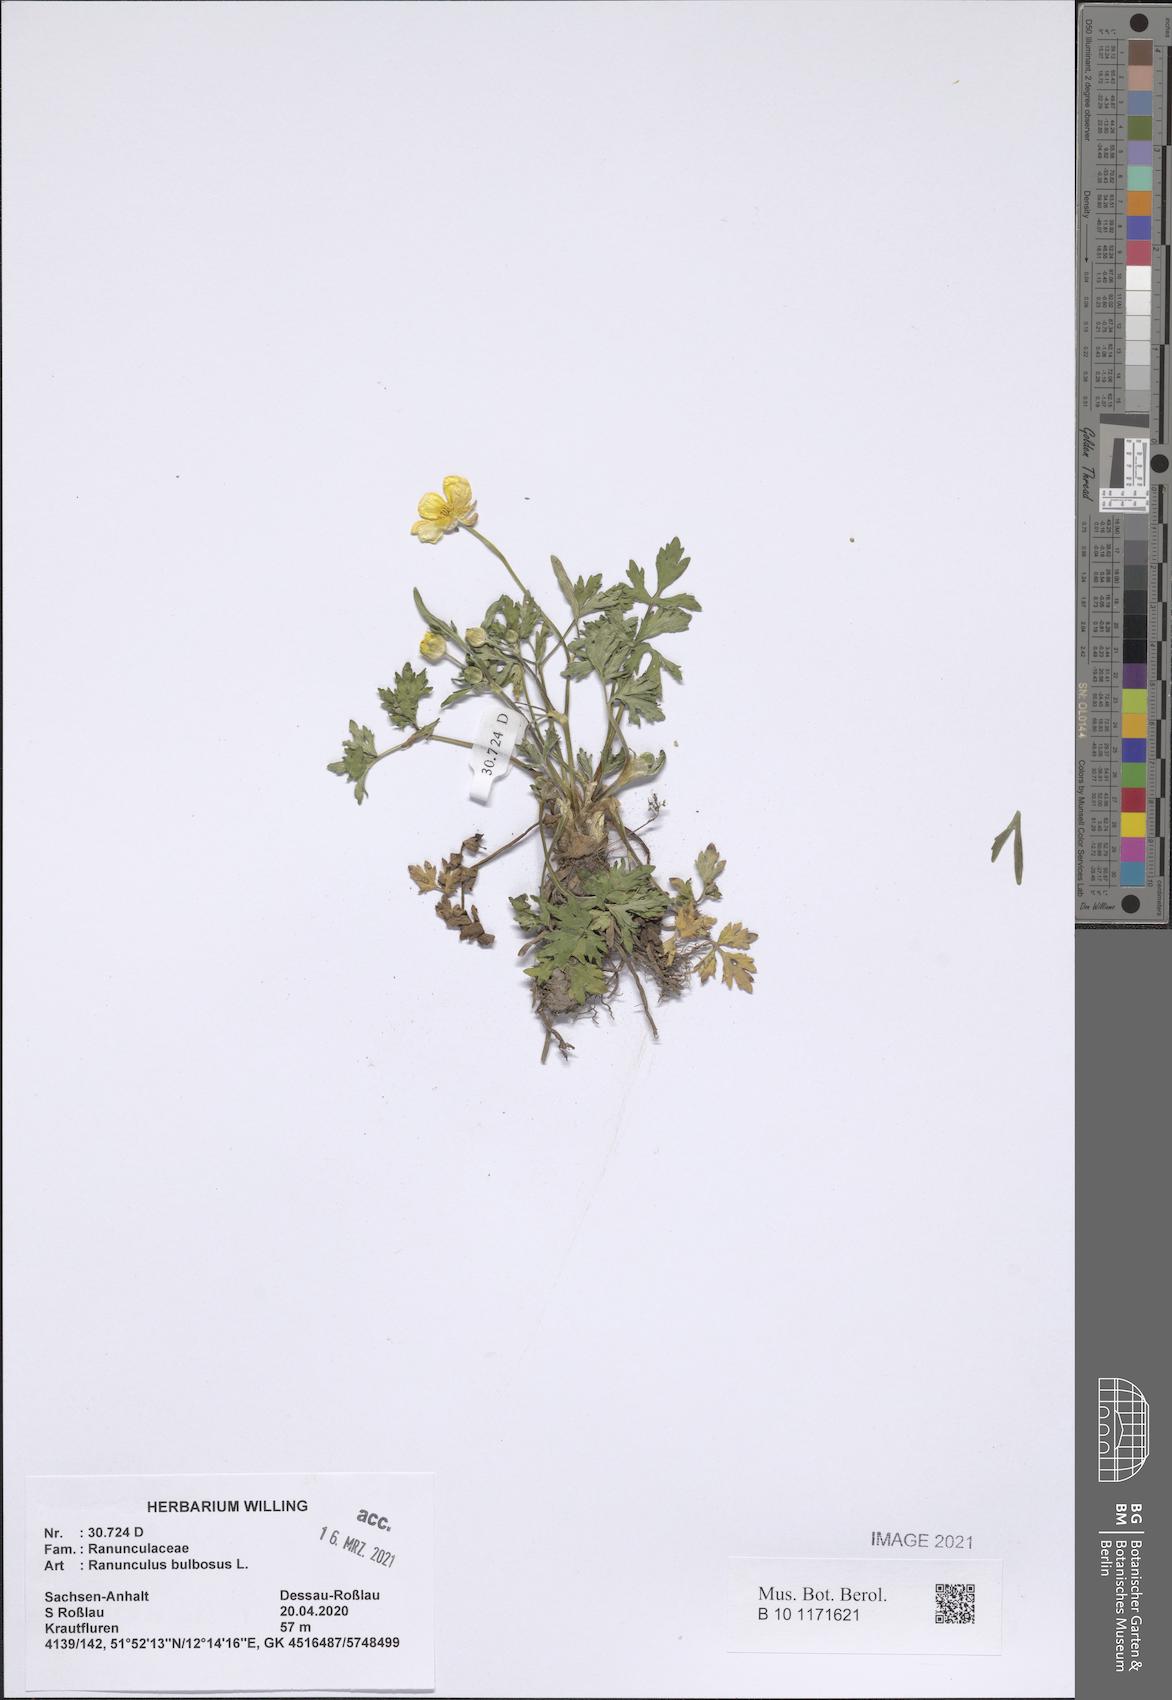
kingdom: Plantae
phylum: Tracheophyta
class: Magnoliopsida
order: Ranunculales
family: Ranunculaceae
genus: Ranunculus
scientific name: Ranunculus bulbosus
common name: Bulbous buttercup
